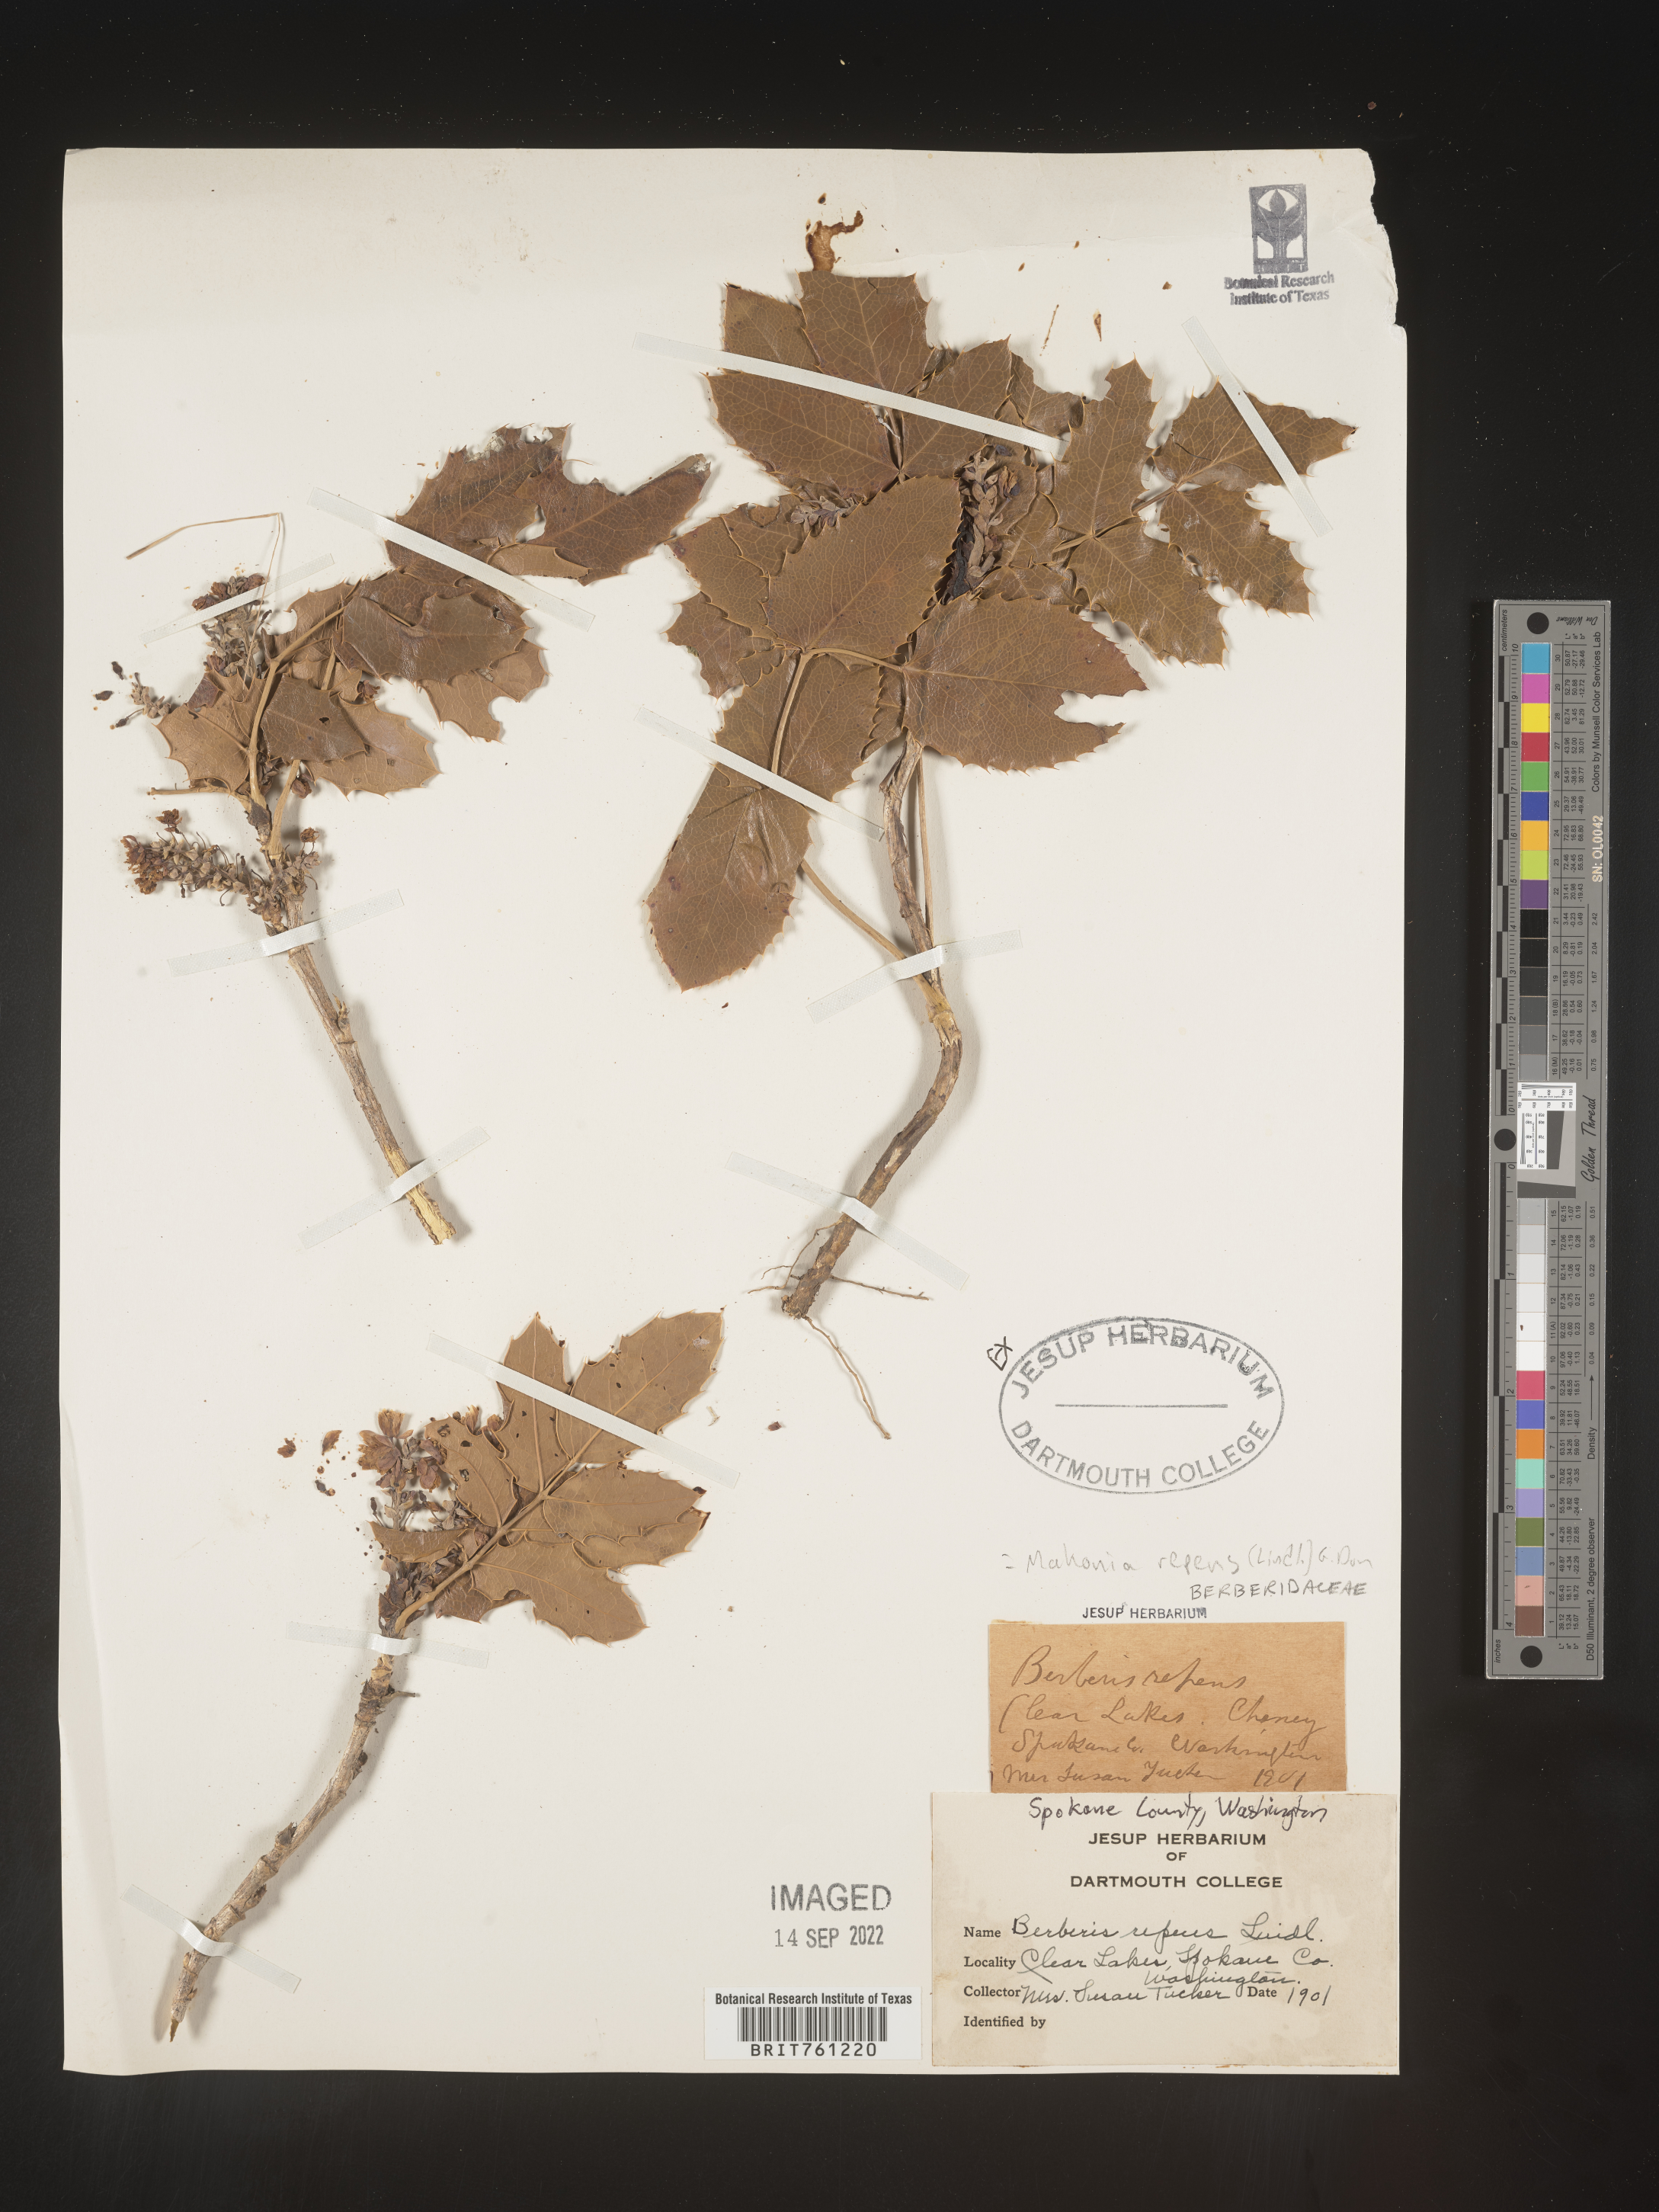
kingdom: Plantae
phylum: Tracheophyta
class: Magnoliopsida
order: Ranunculales
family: Berberidaceae
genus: Mahonia
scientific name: Mahonia repens
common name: Creeping oregon-grape
